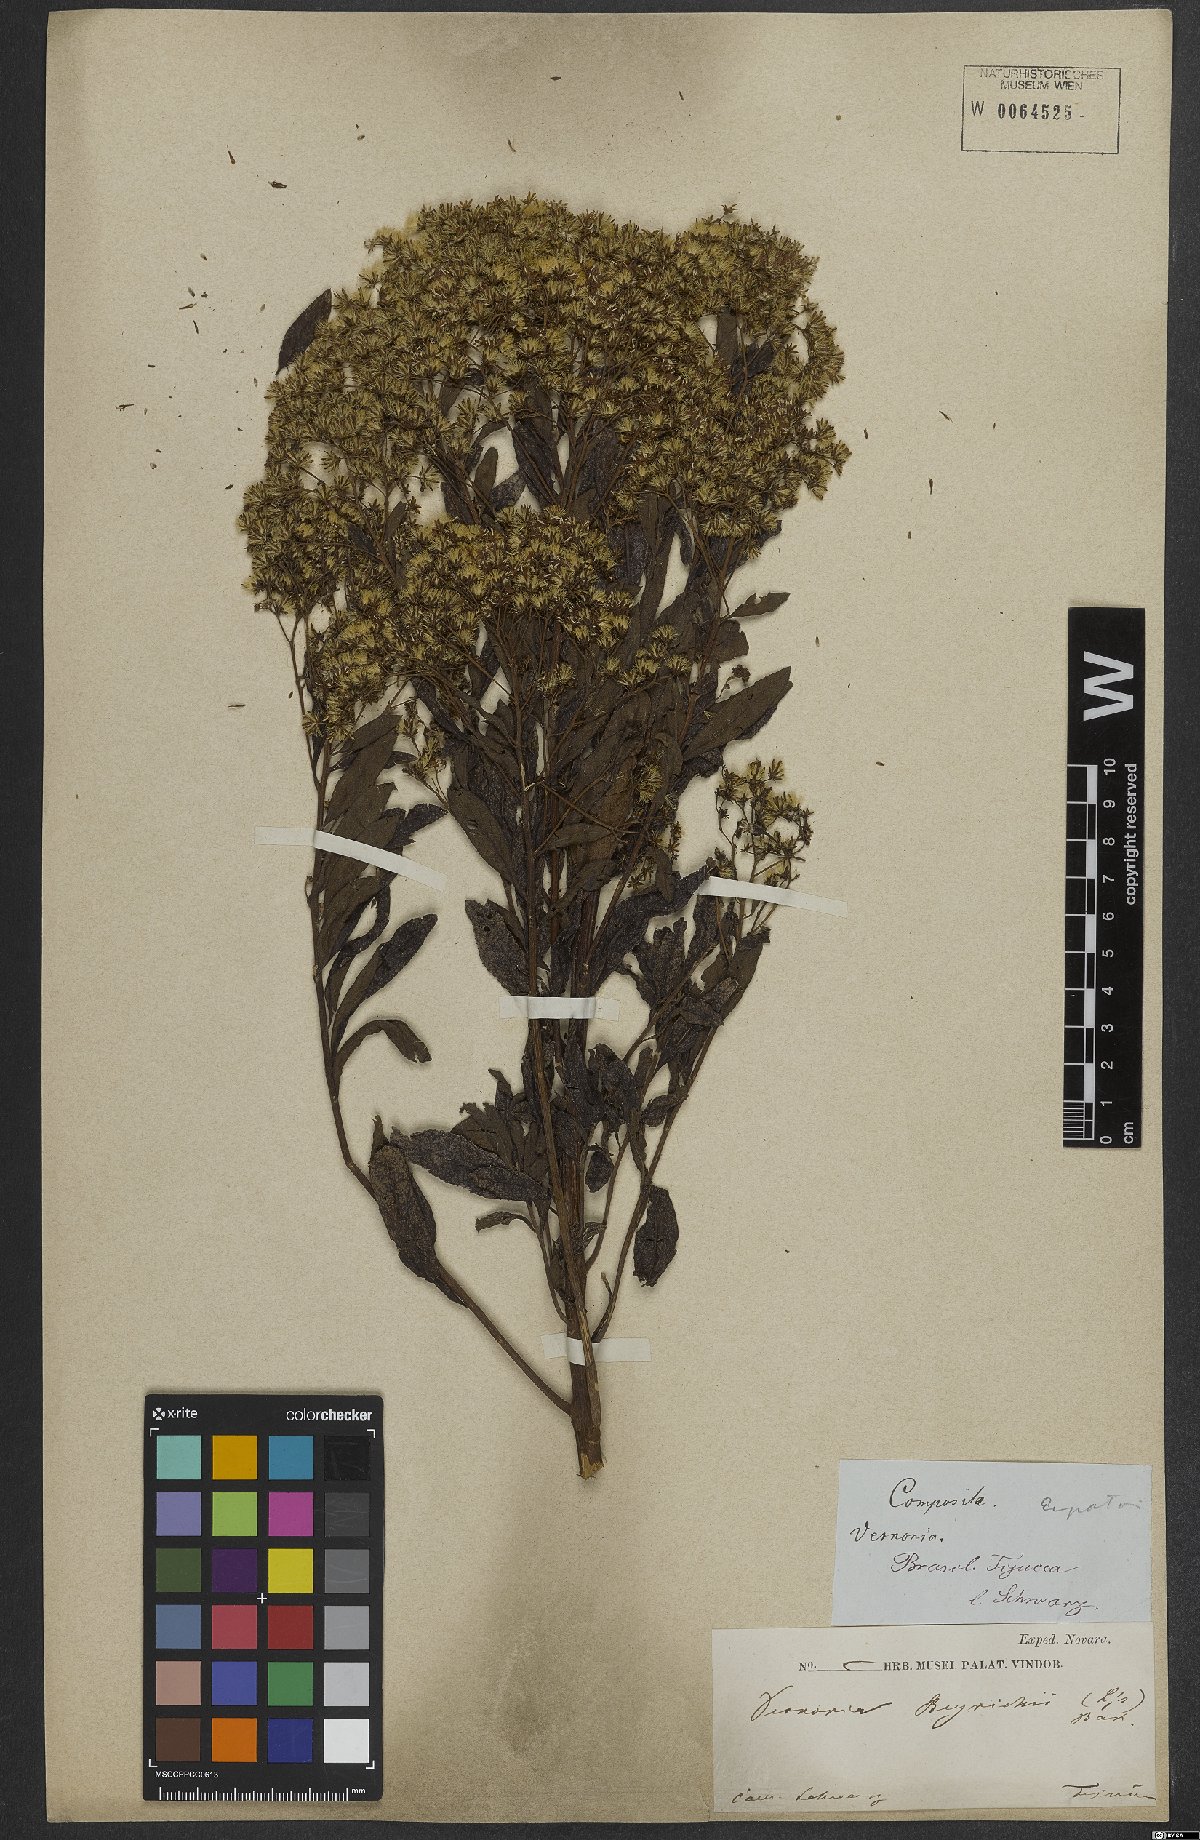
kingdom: Plantae
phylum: Tracheophyta
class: Magnoliopsida
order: Asterales
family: Asteraceae
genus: Vernonanthura
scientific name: Vernonanthura beyrichii
